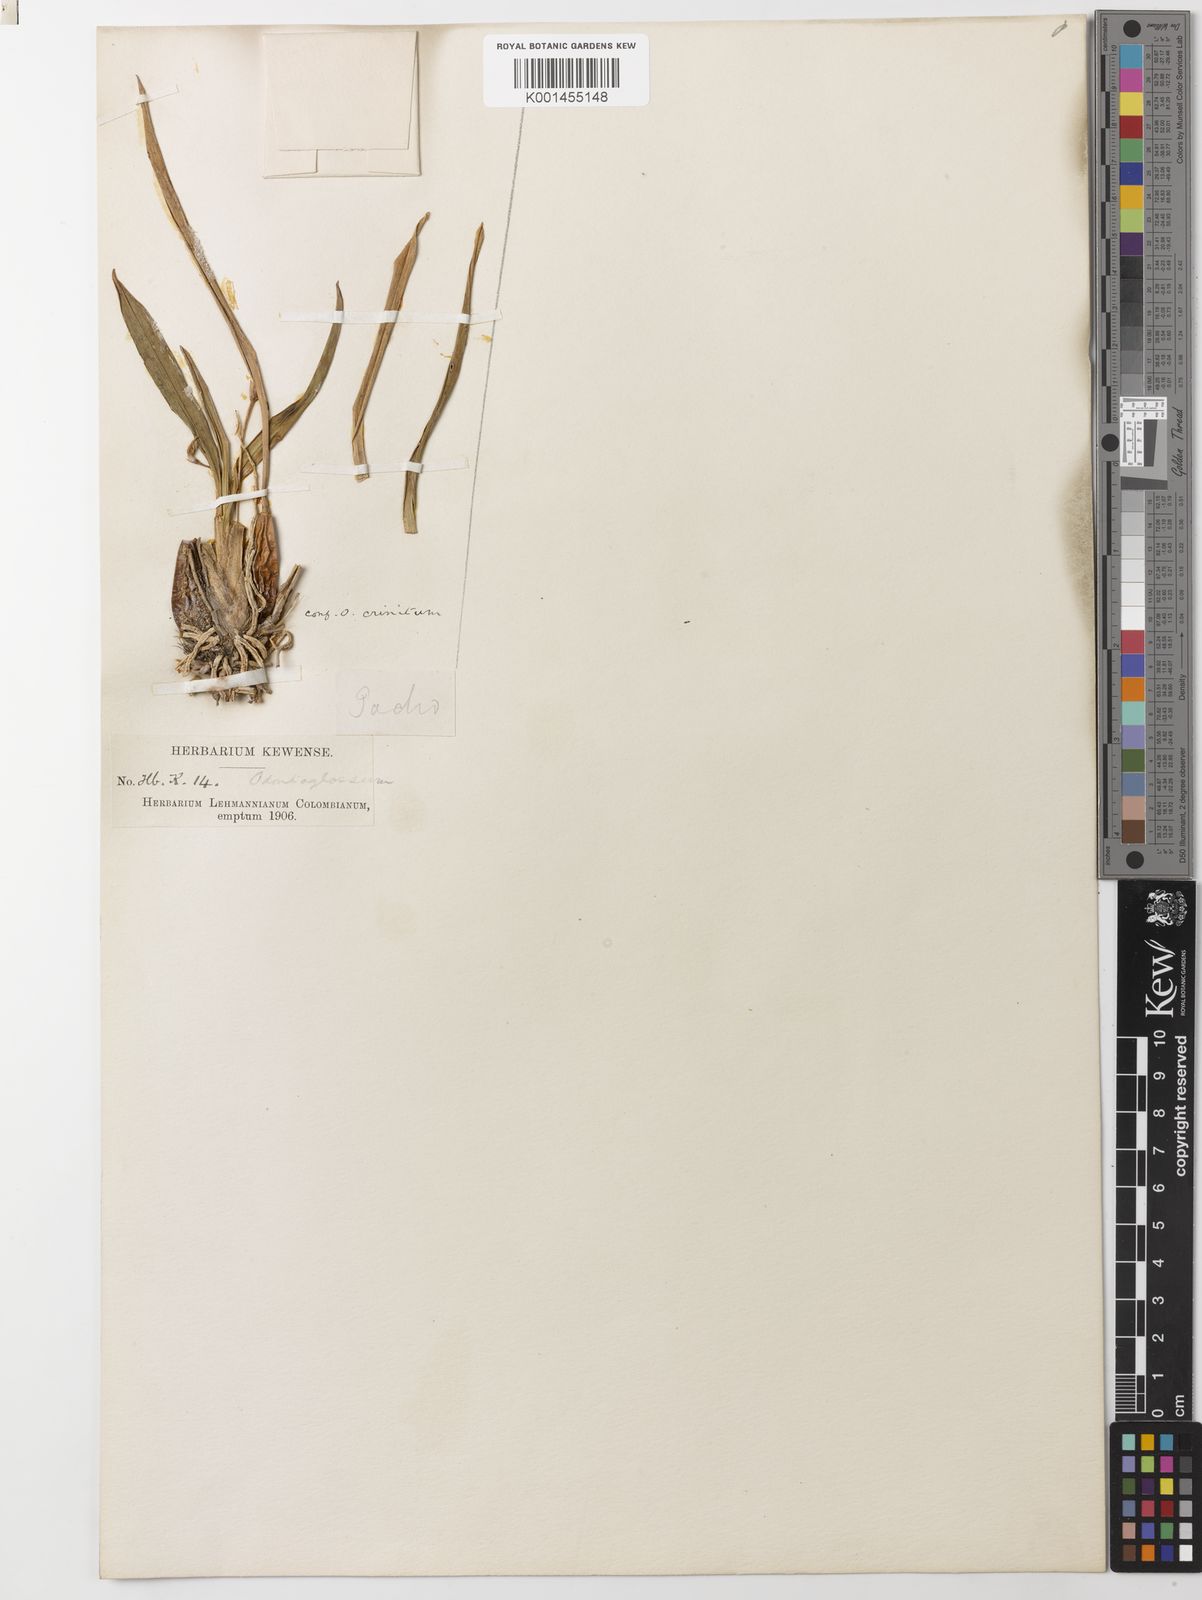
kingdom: Plantae
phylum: Tracheophyta
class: Liliopsida
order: Asparagales
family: Orchidaceae
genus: Oncidium
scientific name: Oncidium crinitum
